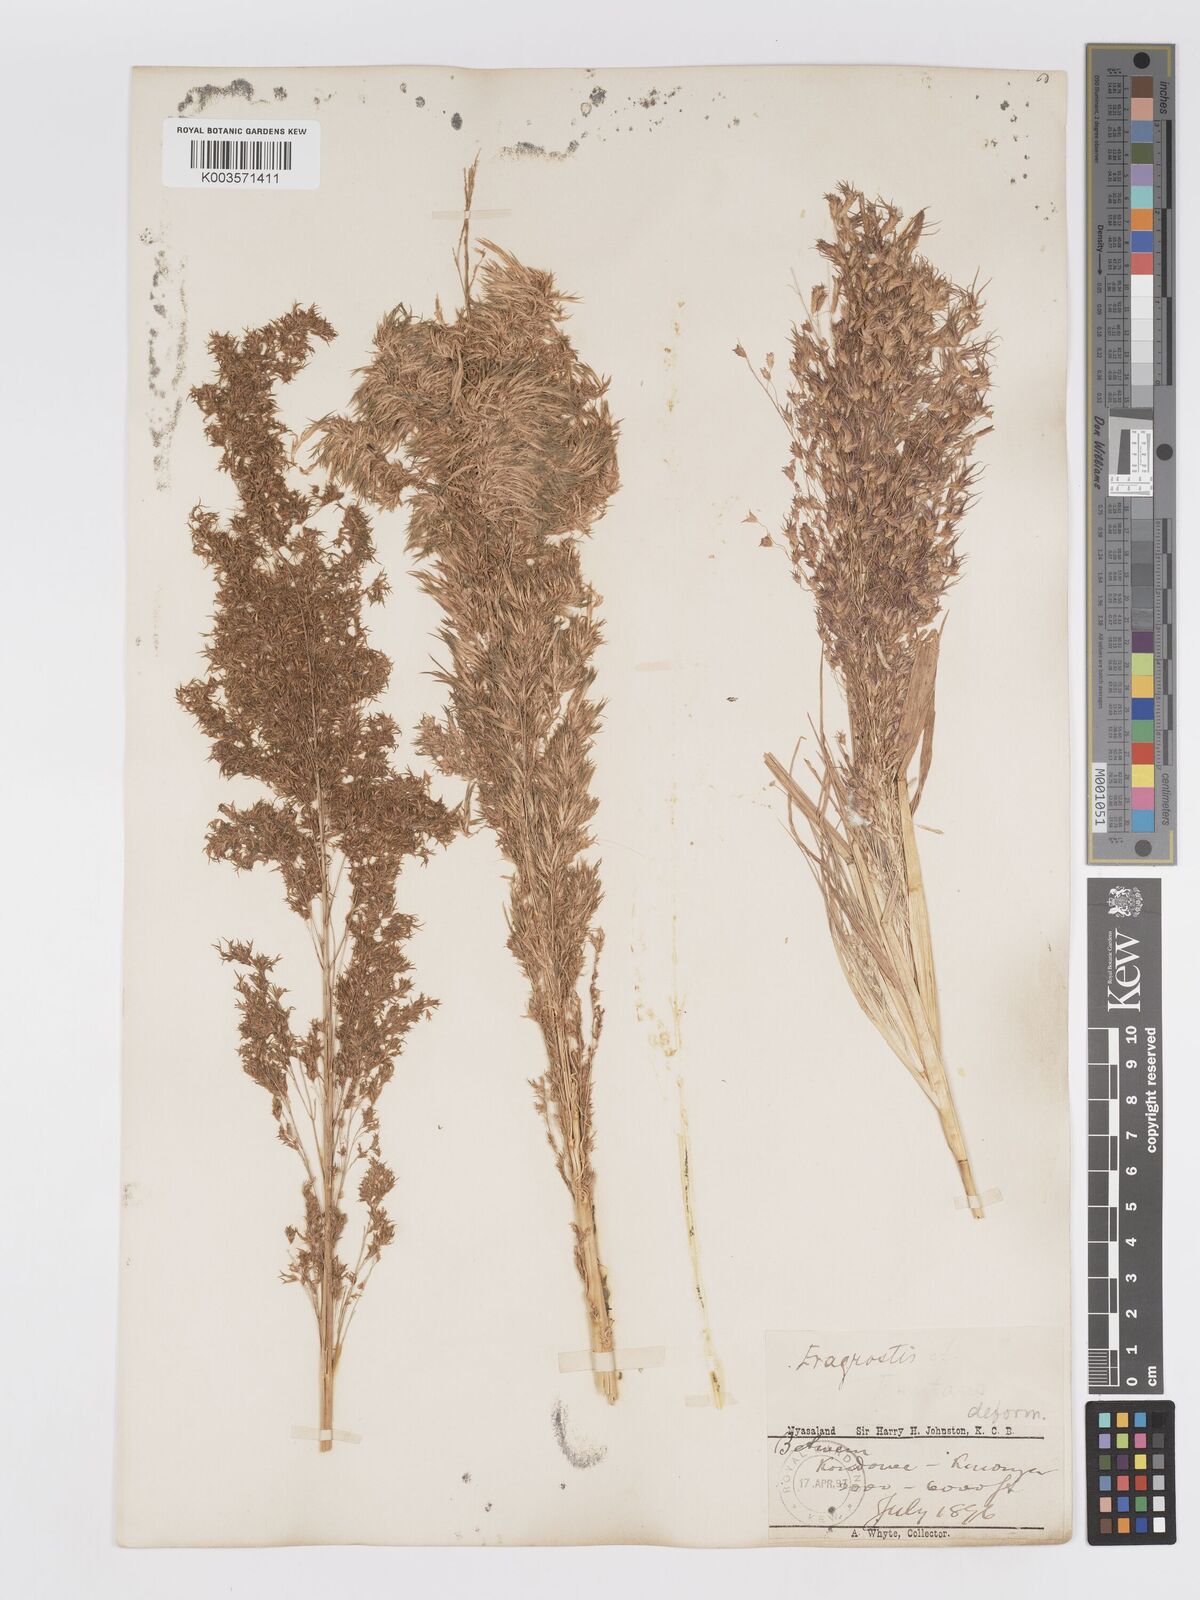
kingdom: Plantae
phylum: Tracheophyta
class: Liliopsida
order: Poales
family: Poaceae
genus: Eragrostis
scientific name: Eragrostis aspera
